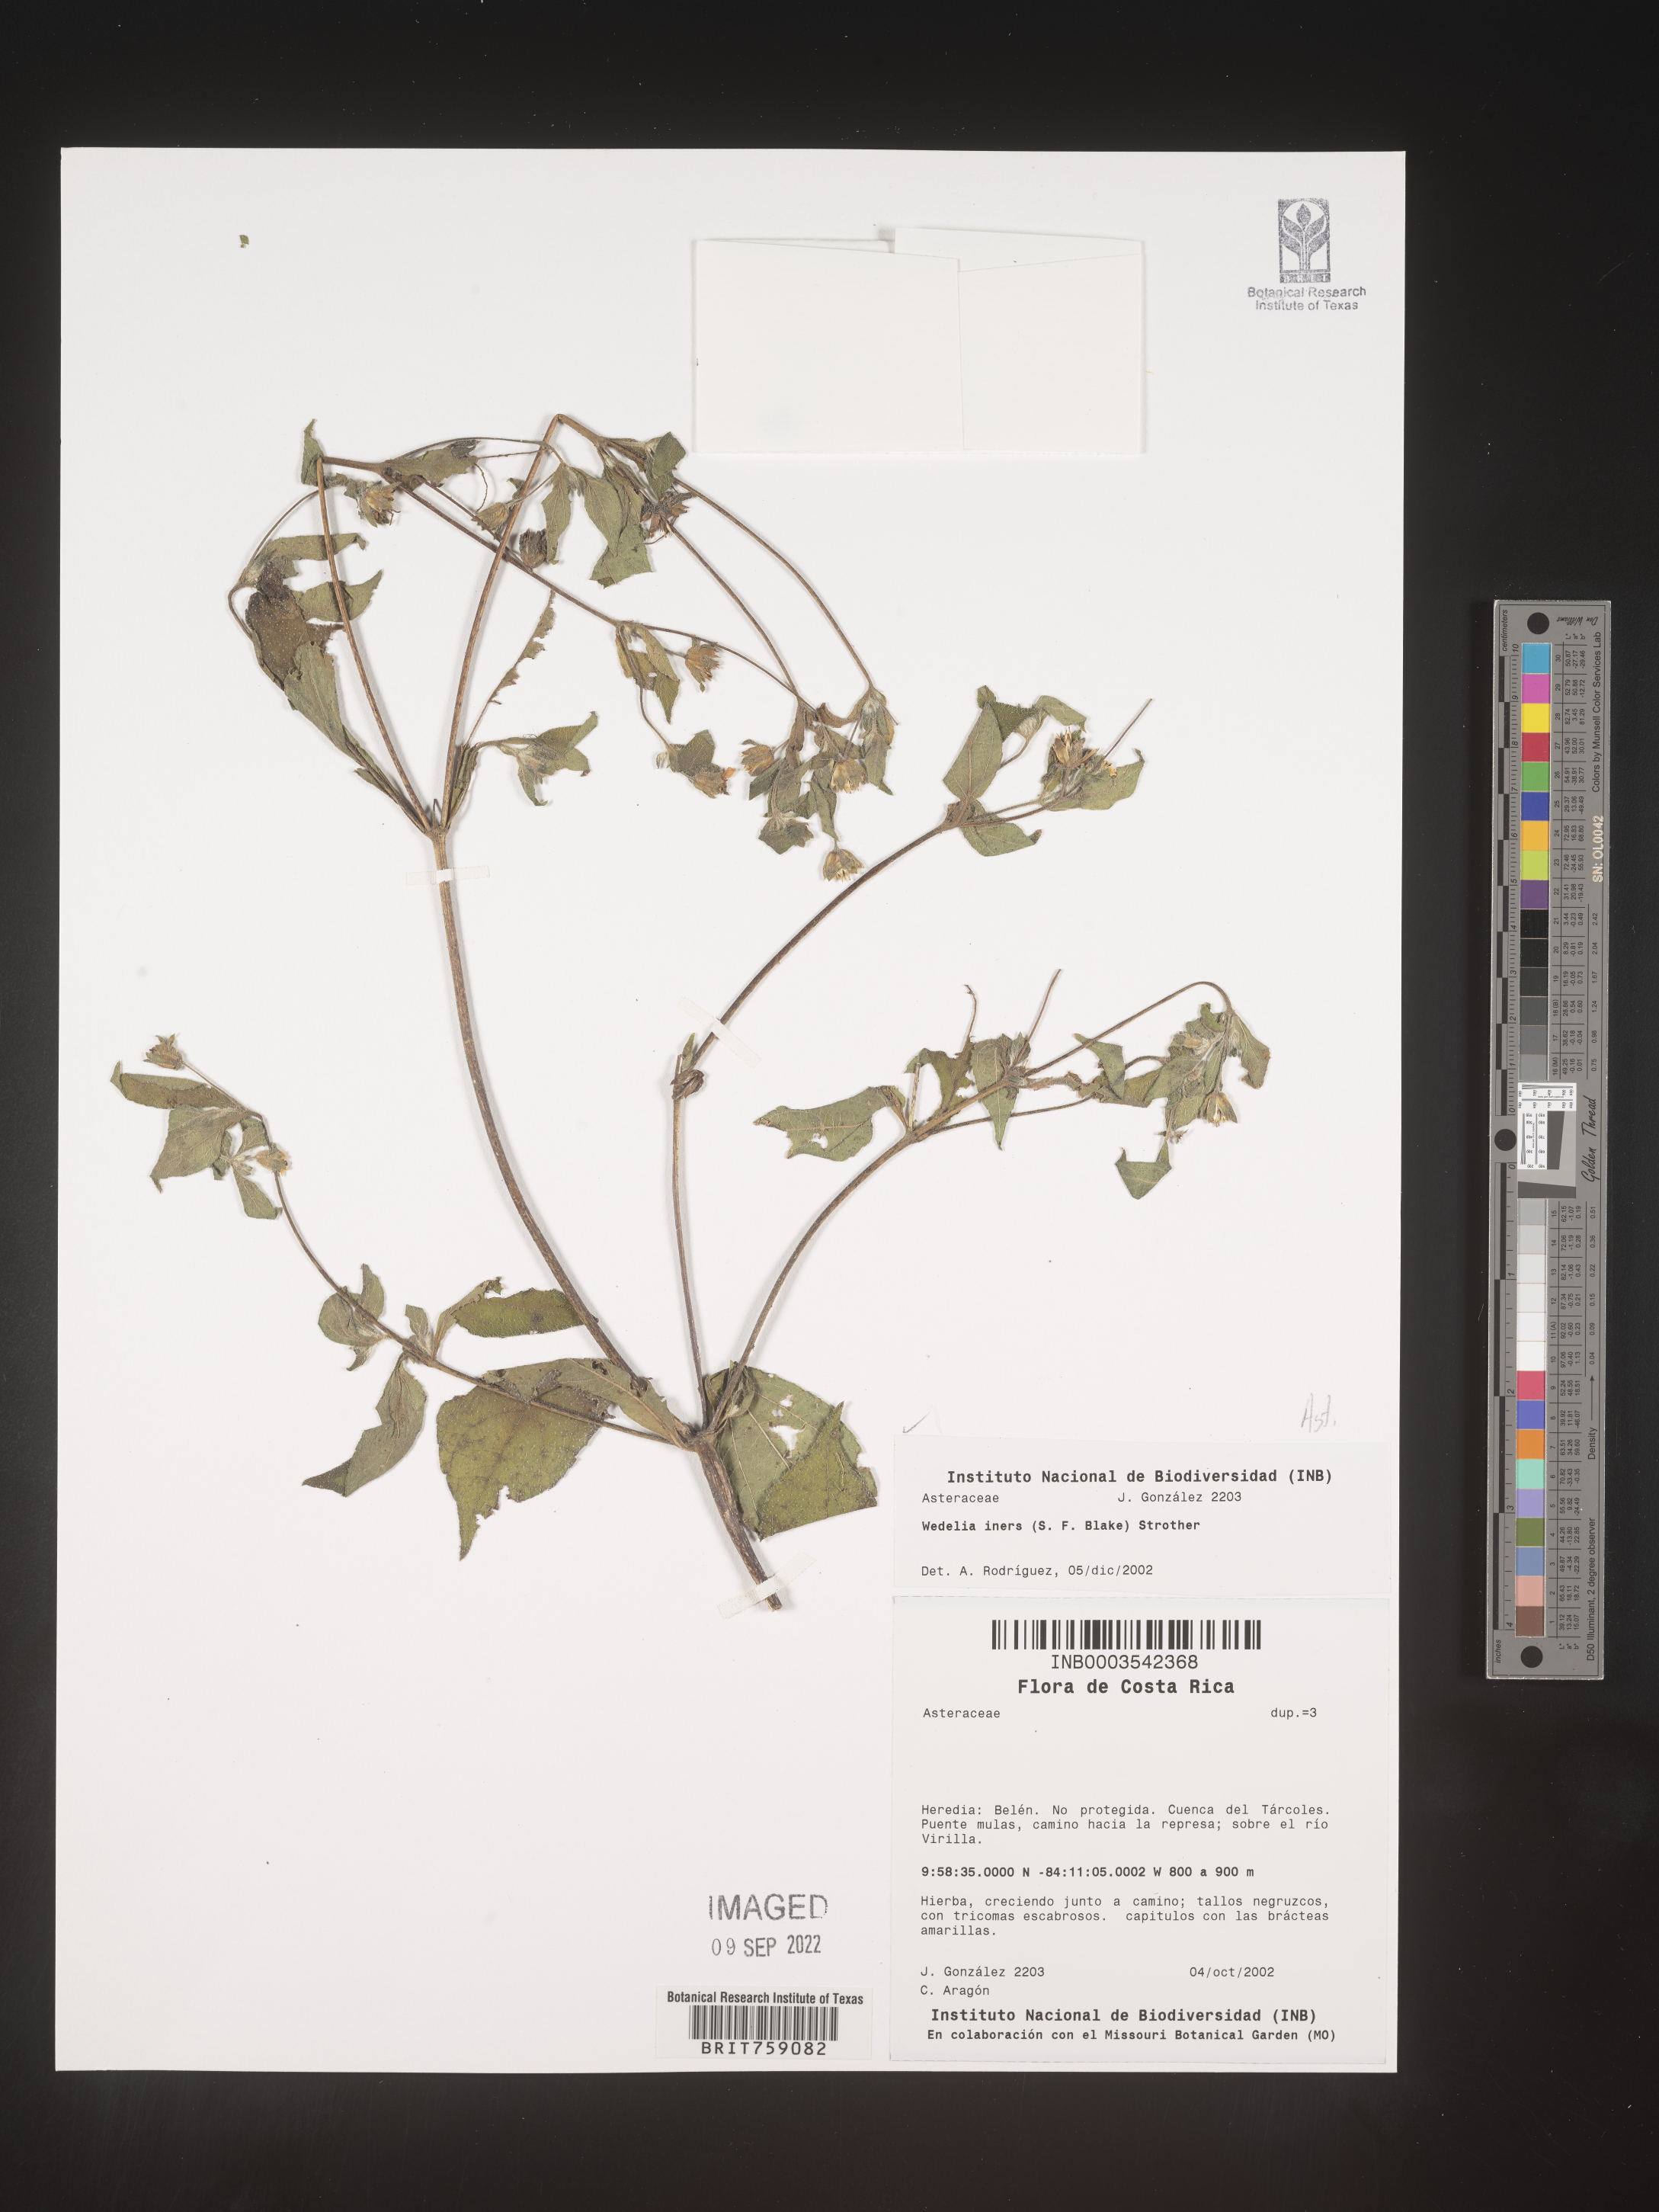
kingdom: Plantae
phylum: Tracheophyta
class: Magnoliopsida
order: Asterales
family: Asteraceae
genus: Wedelia
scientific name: Wedelia
